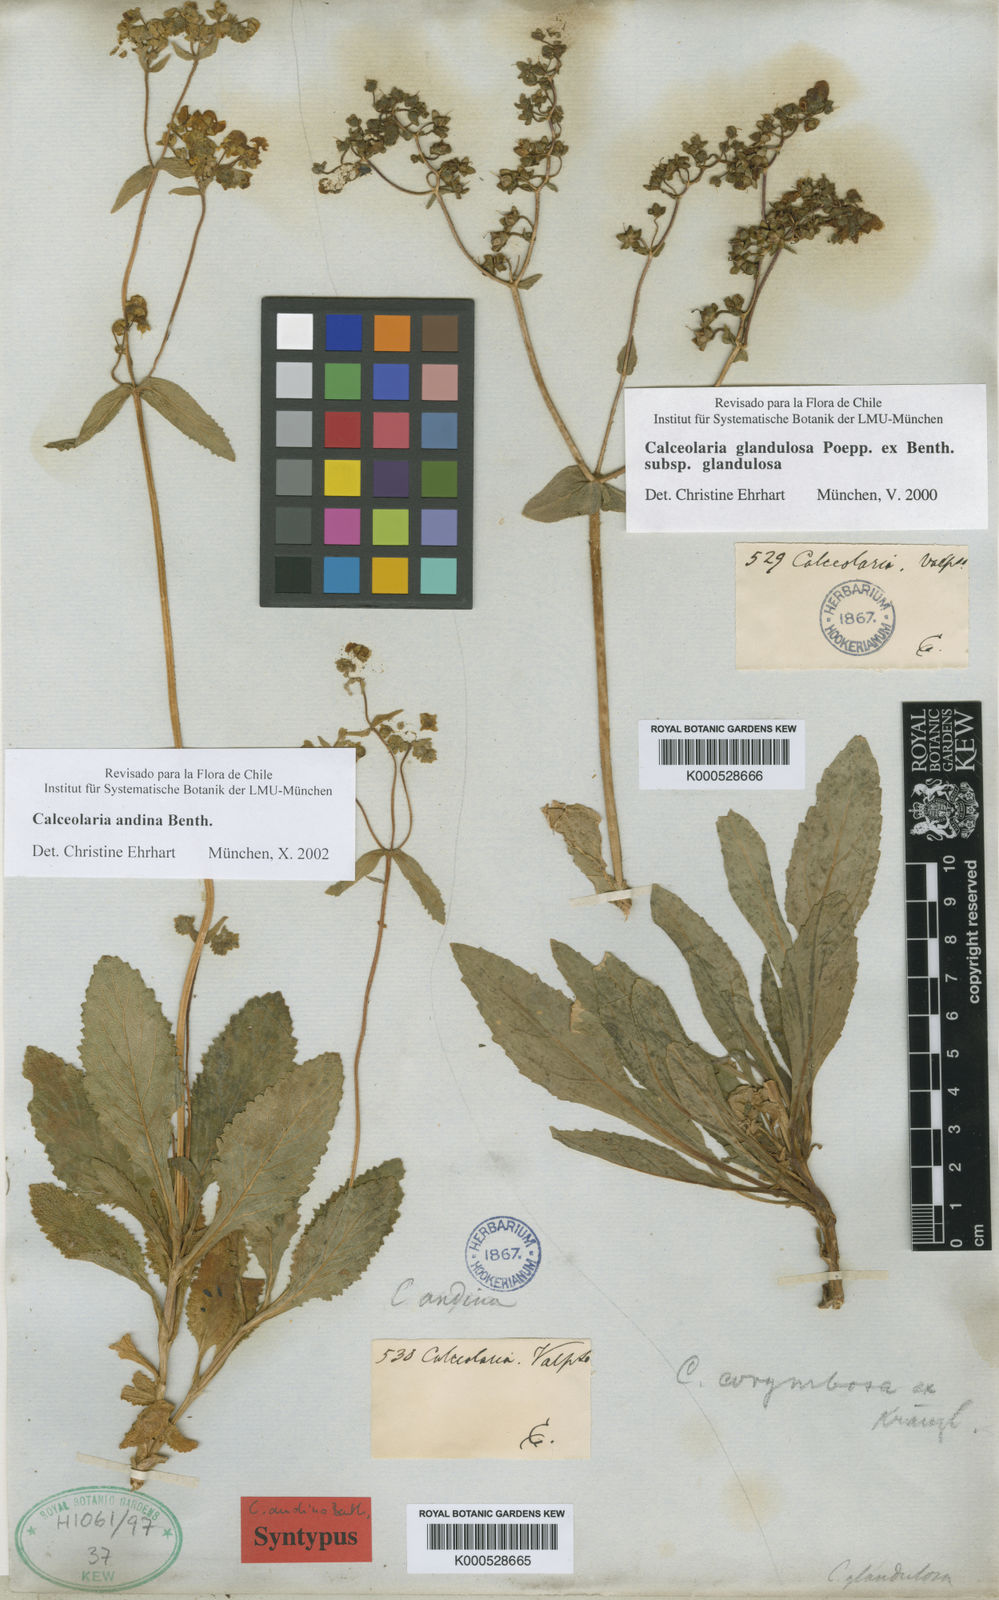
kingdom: Plantae
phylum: Tracheophyta
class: Magnoliopsida
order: Lamiales
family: Calceolariaceae
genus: Calceolaria
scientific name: Calceolaria dentifolia
